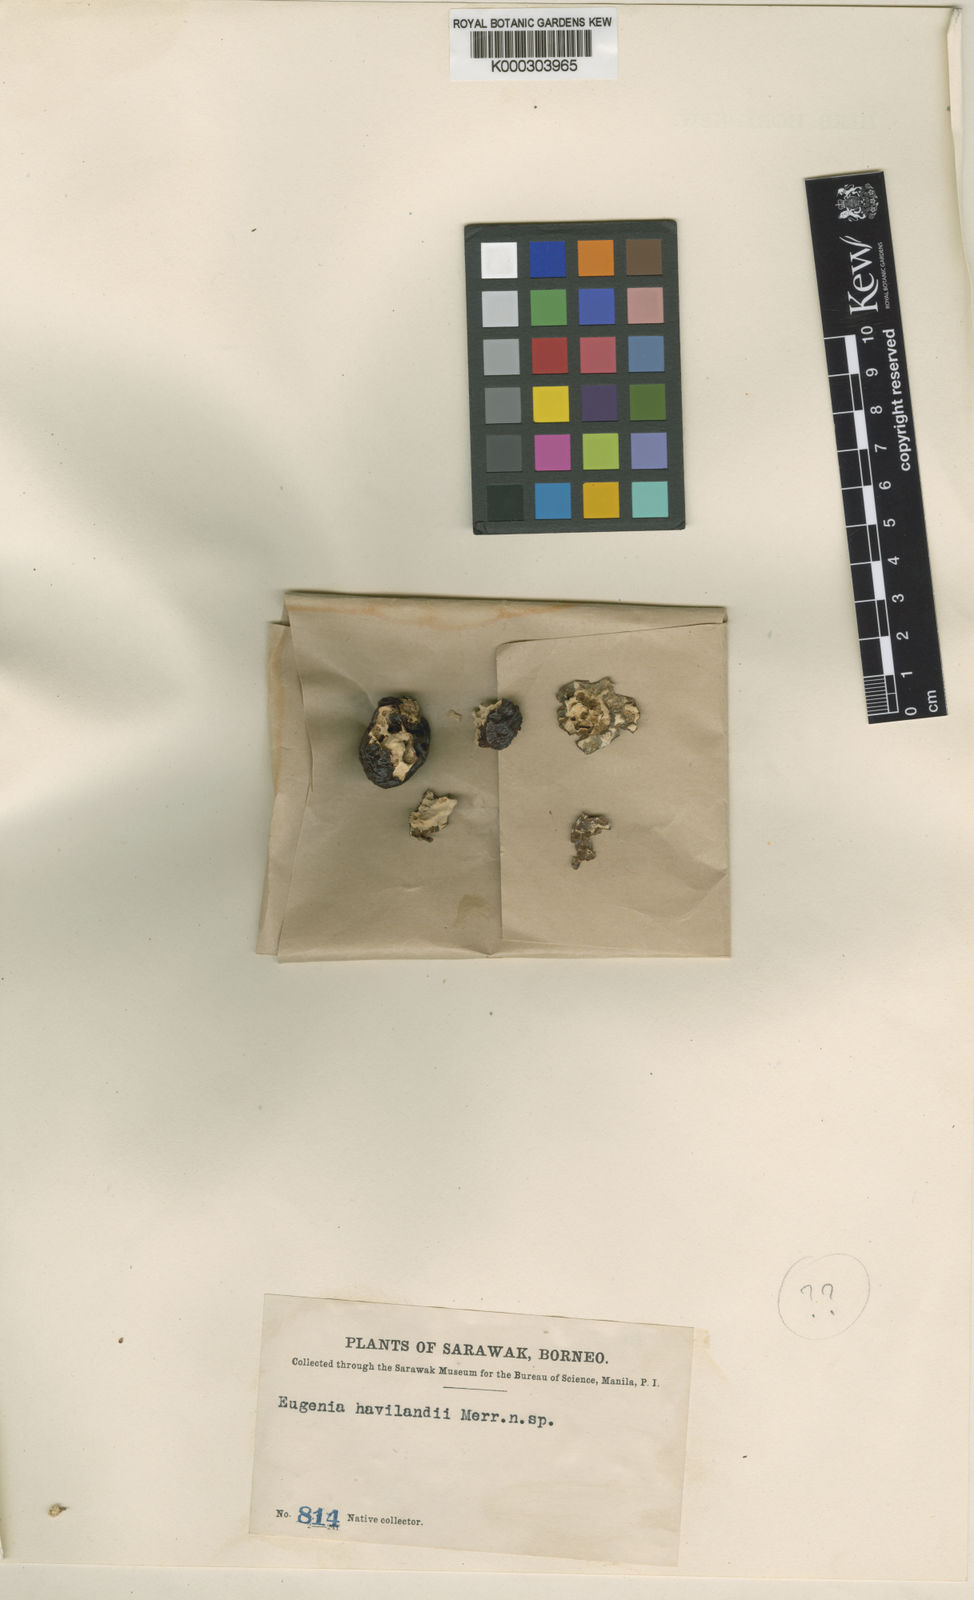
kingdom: Plantae
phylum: Tracheophyta
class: Magnoliopsida
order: Myrtales
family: Myrtaceae
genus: Syzygium
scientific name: Syzygium havilandii
